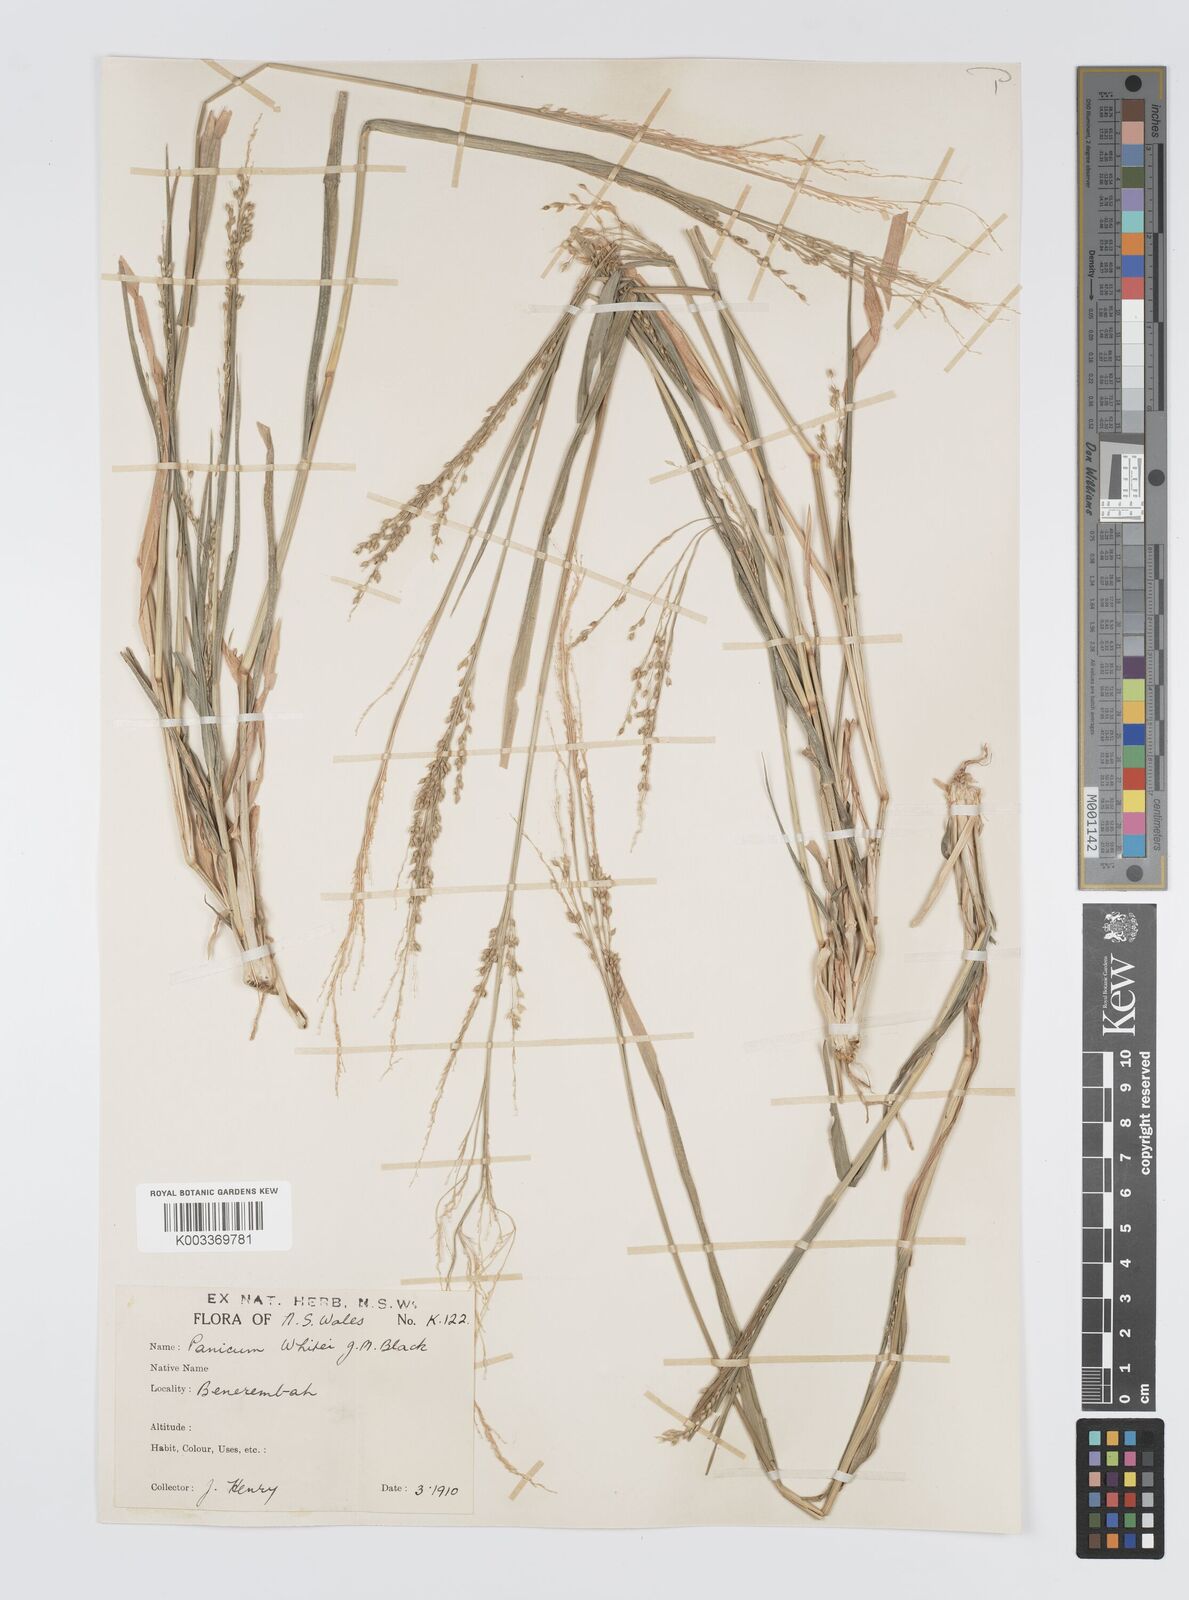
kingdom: Plantae
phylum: Tracheophyta
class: Liliopsida
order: Poales
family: Poaceae
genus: Panicum
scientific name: Panicum laevinode
